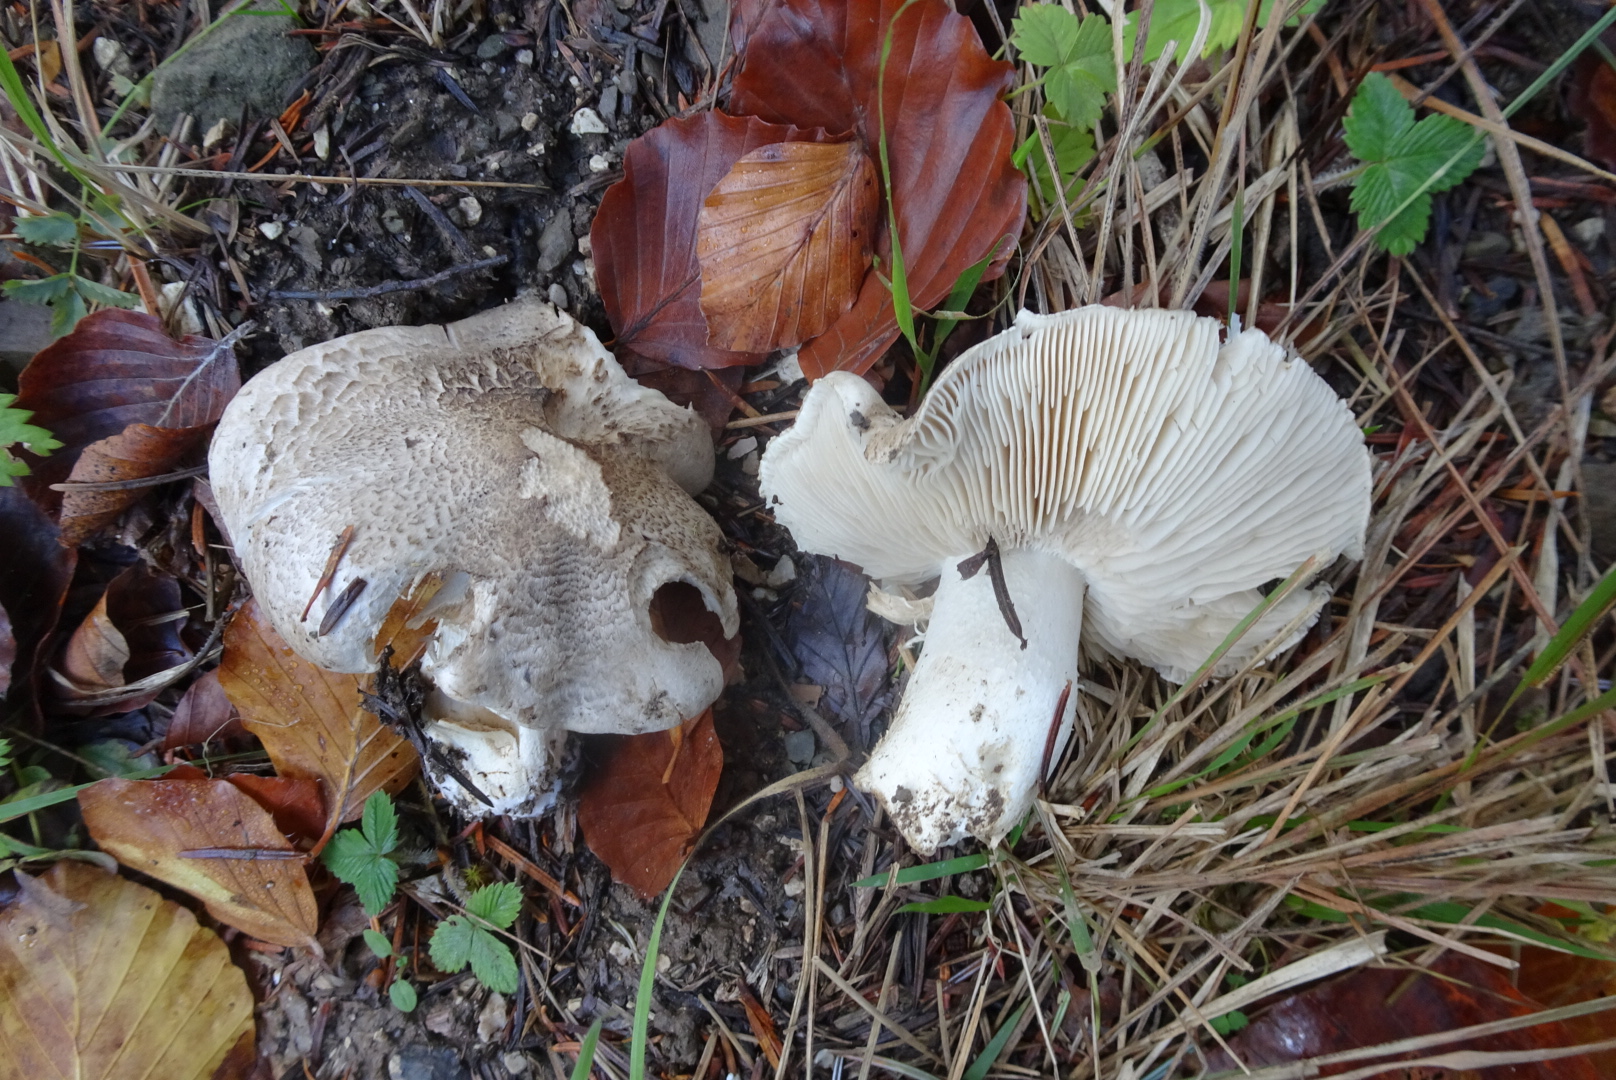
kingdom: Fungi
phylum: Basidiomycota
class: Agaricomycetes
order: Agaricales
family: Tricholomataceae
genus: Tricholoma
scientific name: Tricholoma pardinum
